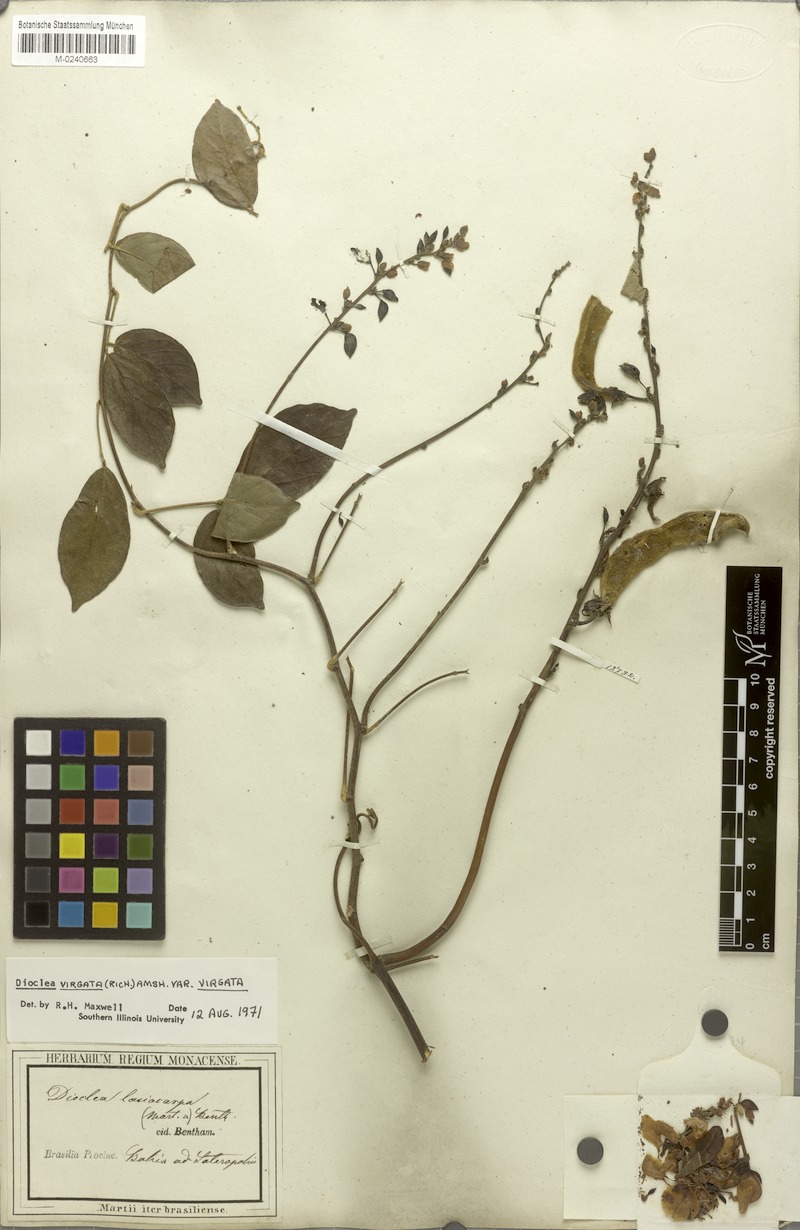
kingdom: Plantae
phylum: Tracheophyta
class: Magnoliopsida
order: Fabales
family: Fabaceae
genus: Dioclea
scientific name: Dioclea virgata
